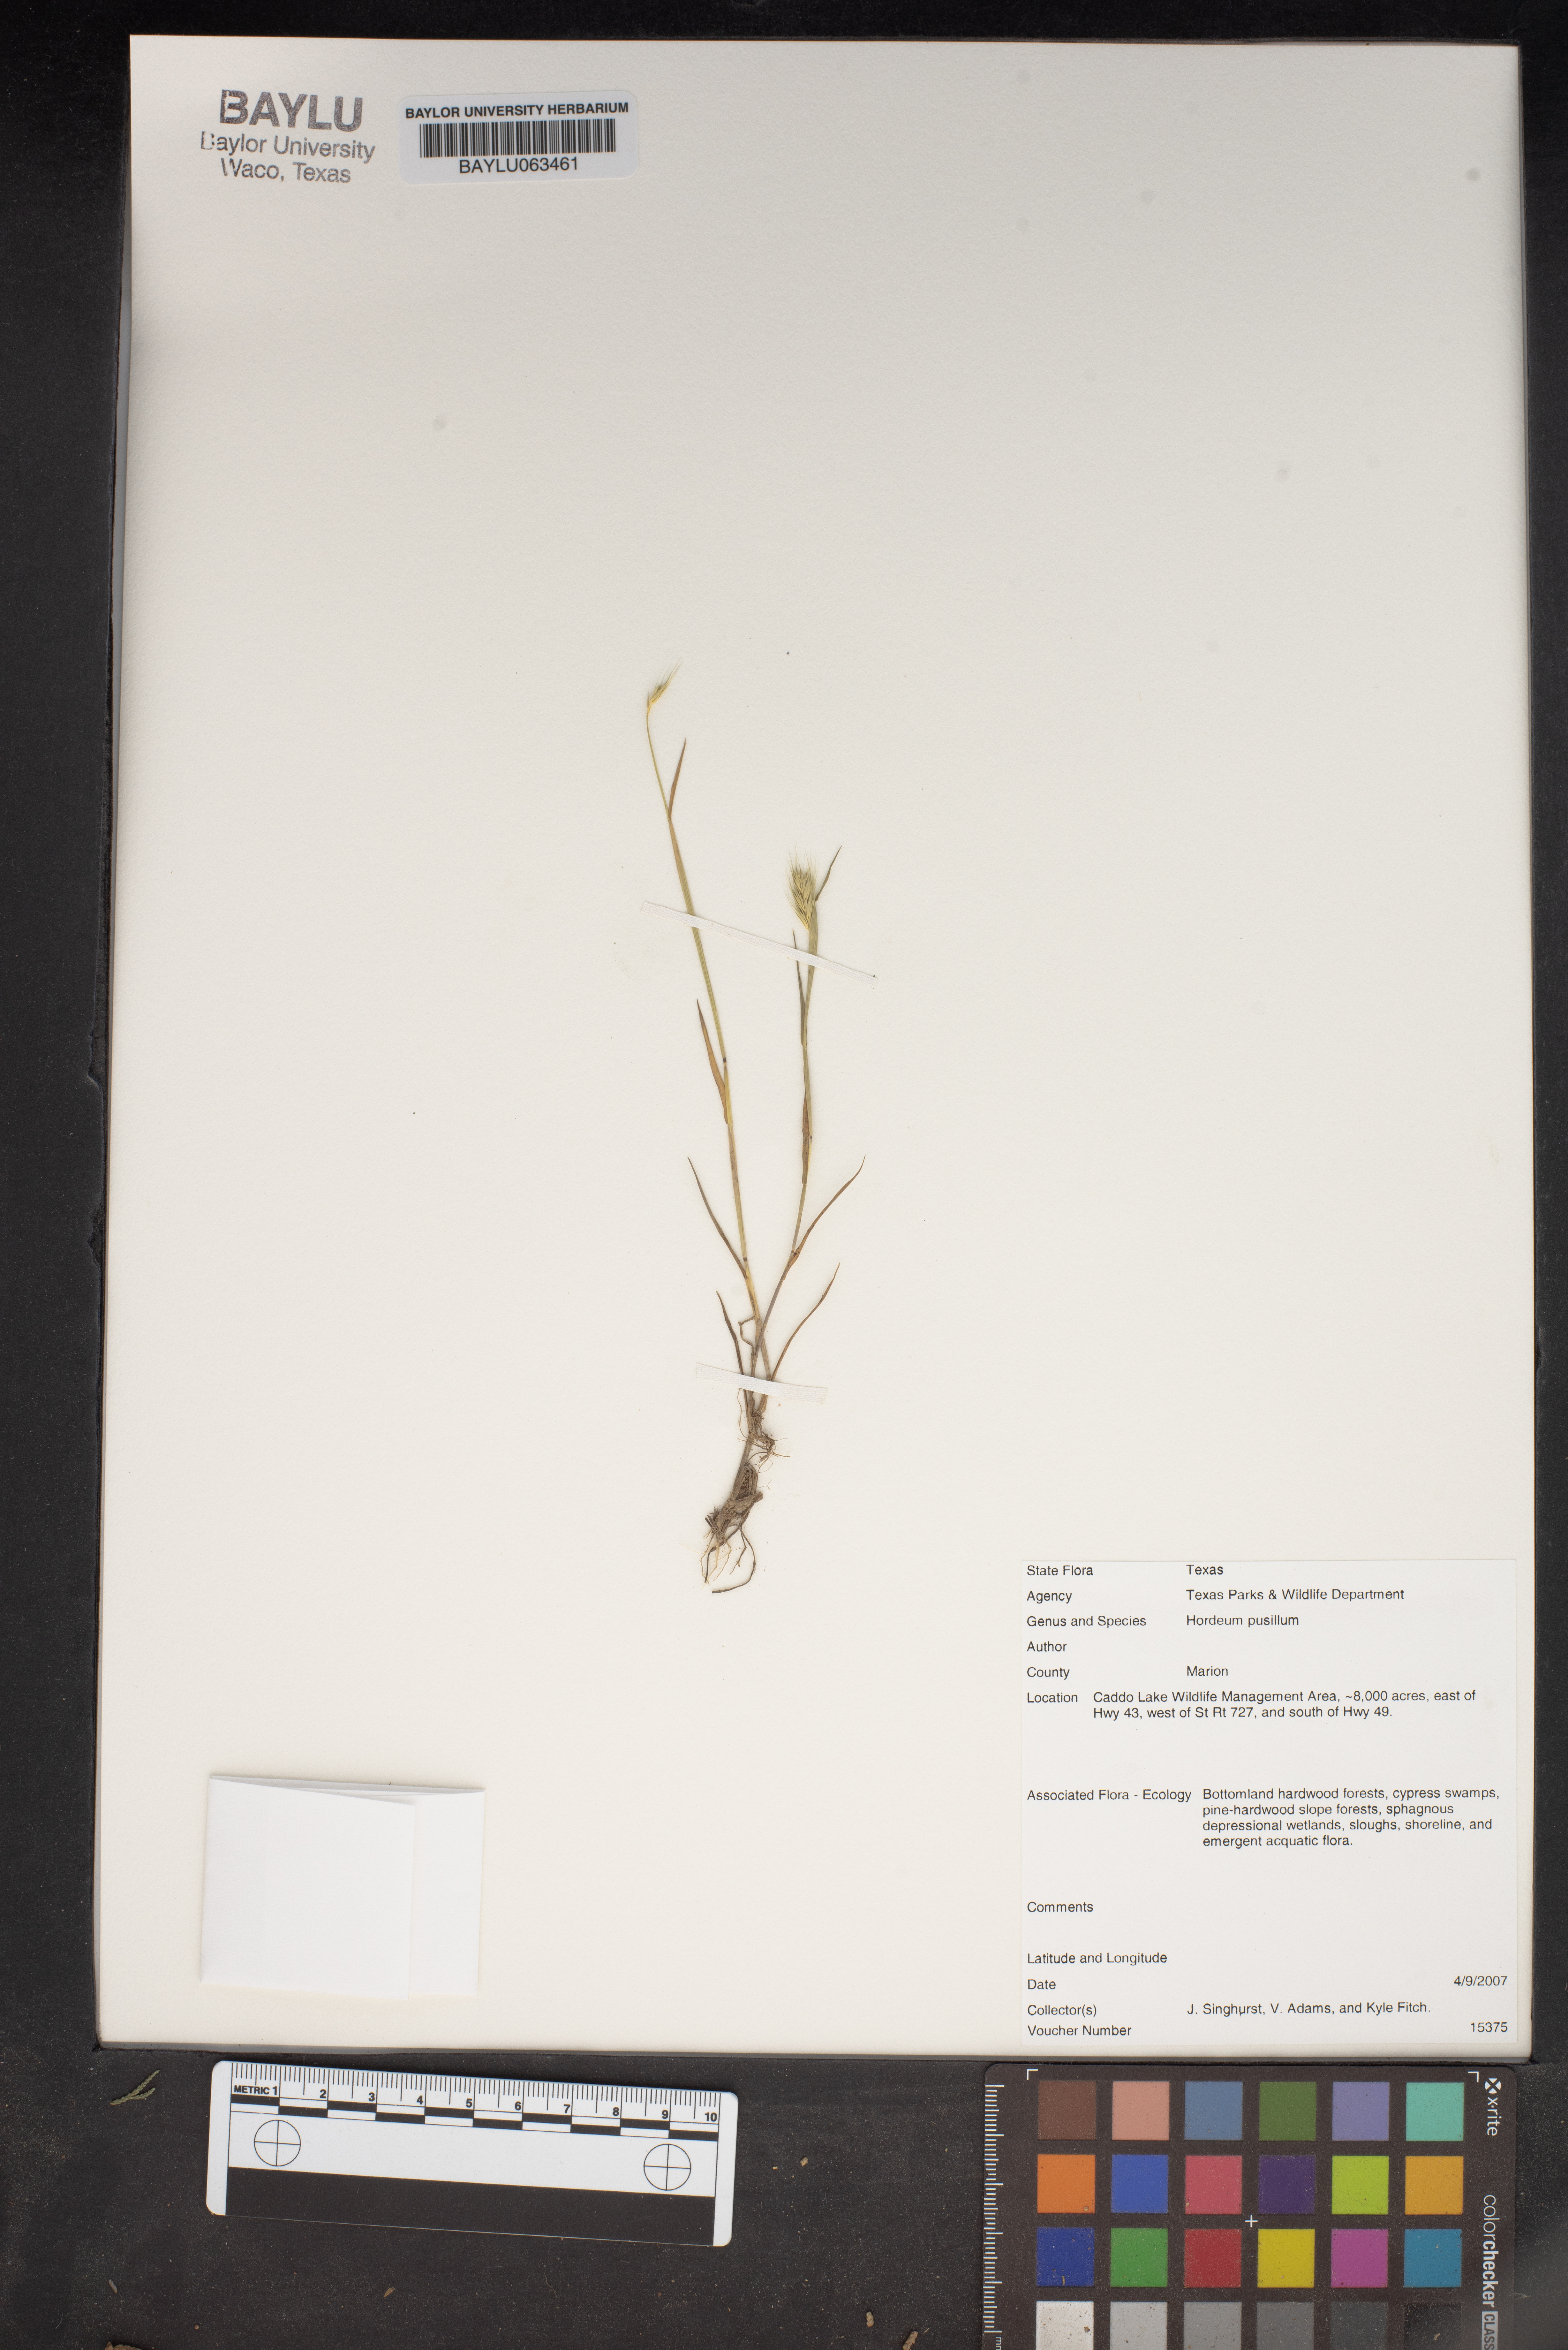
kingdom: Plantae
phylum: Tracheophyta
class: Liliopsida
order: Poales
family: Poaceae
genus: Hordeum
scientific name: Hordeum pusillum
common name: Little barley
